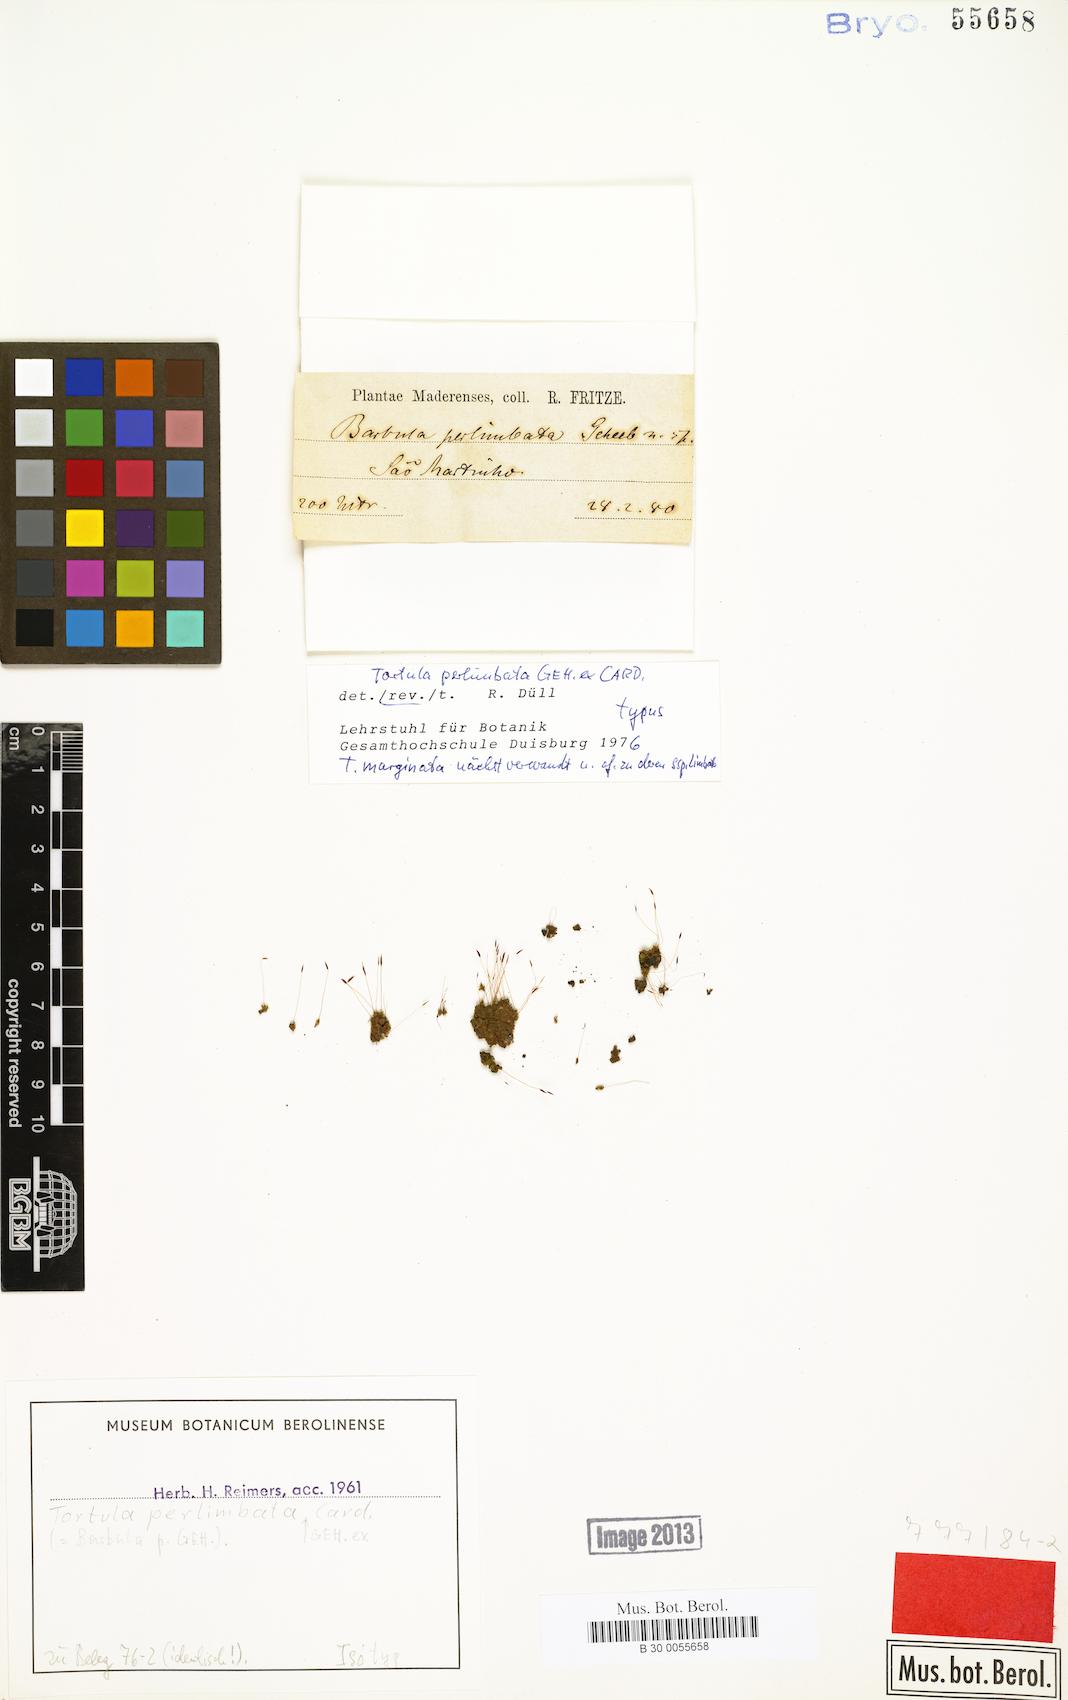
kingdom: Plantae
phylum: Bryophyta
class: Bryopsida
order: Pottiales
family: Pottiaceae
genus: Tortula
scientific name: Tortula solmsii
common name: Solms' screw-moss
